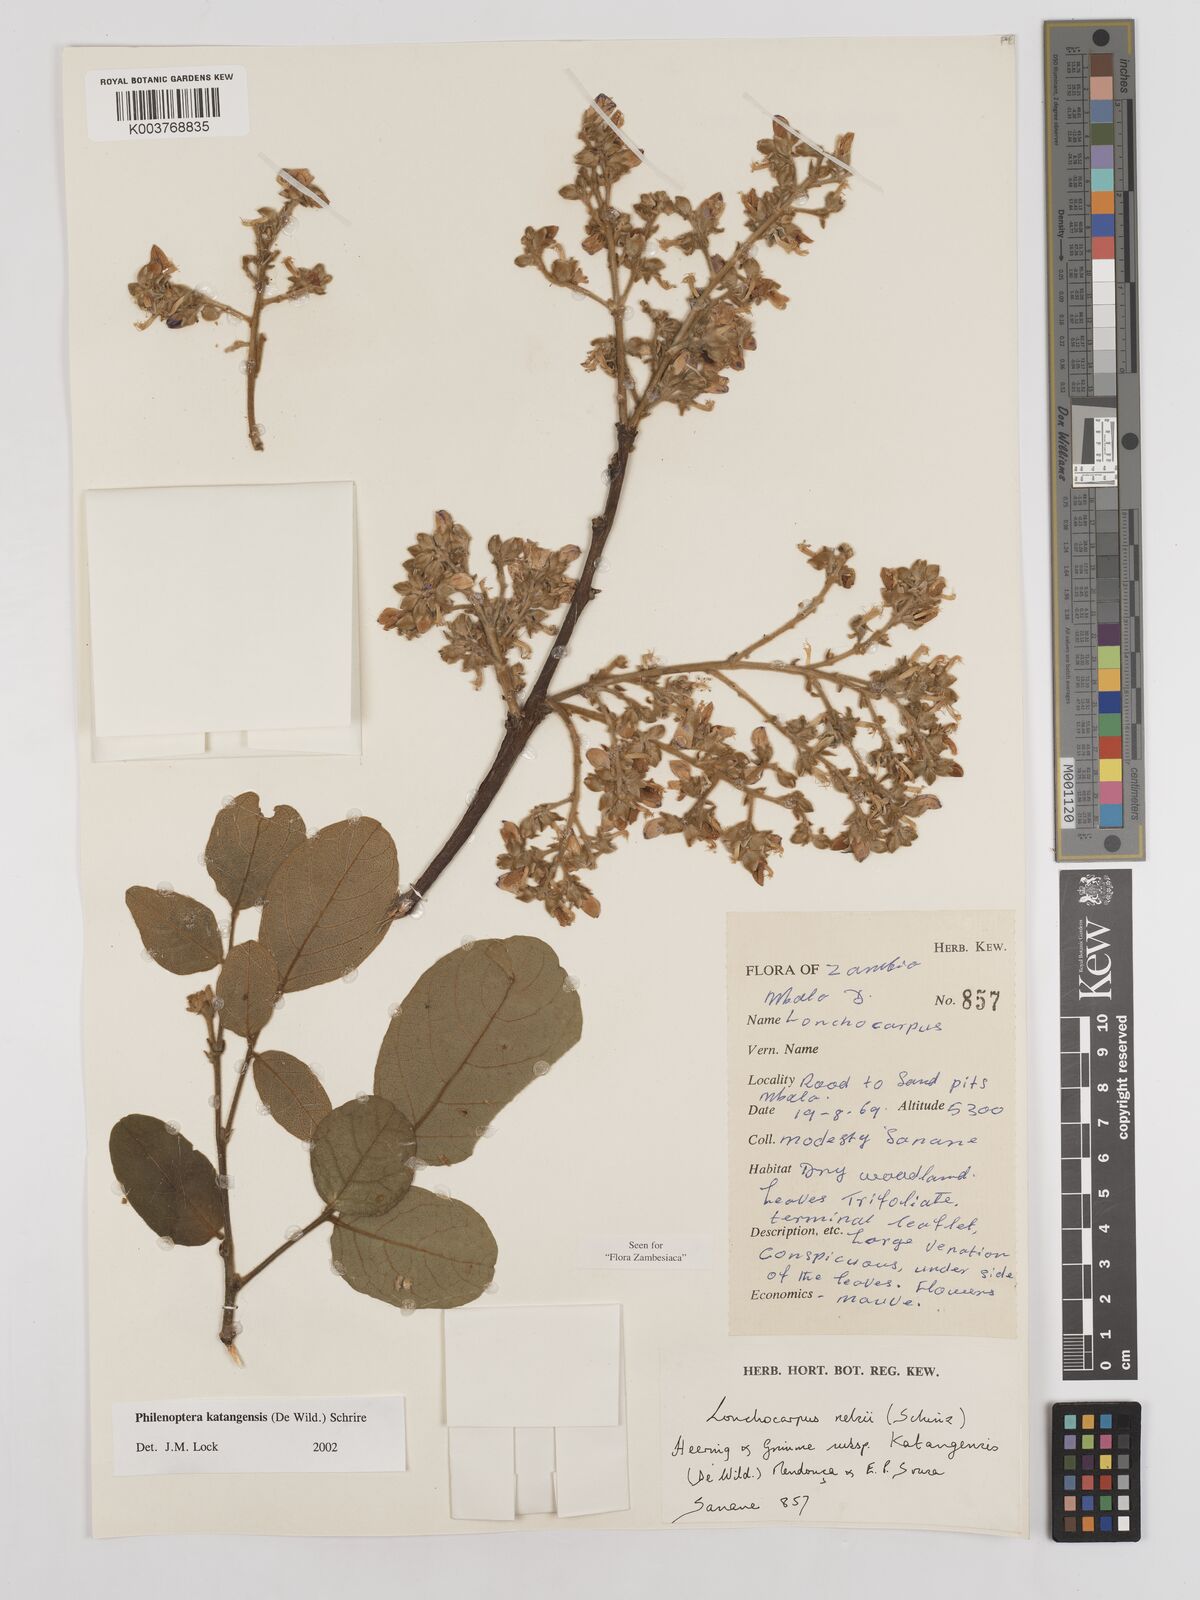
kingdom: Plantae
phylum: Tracheophyta
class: Magnoliopsida
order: Fabales
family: Fabaceae
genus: Philenoptera
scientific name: Philenoptera katangensis
